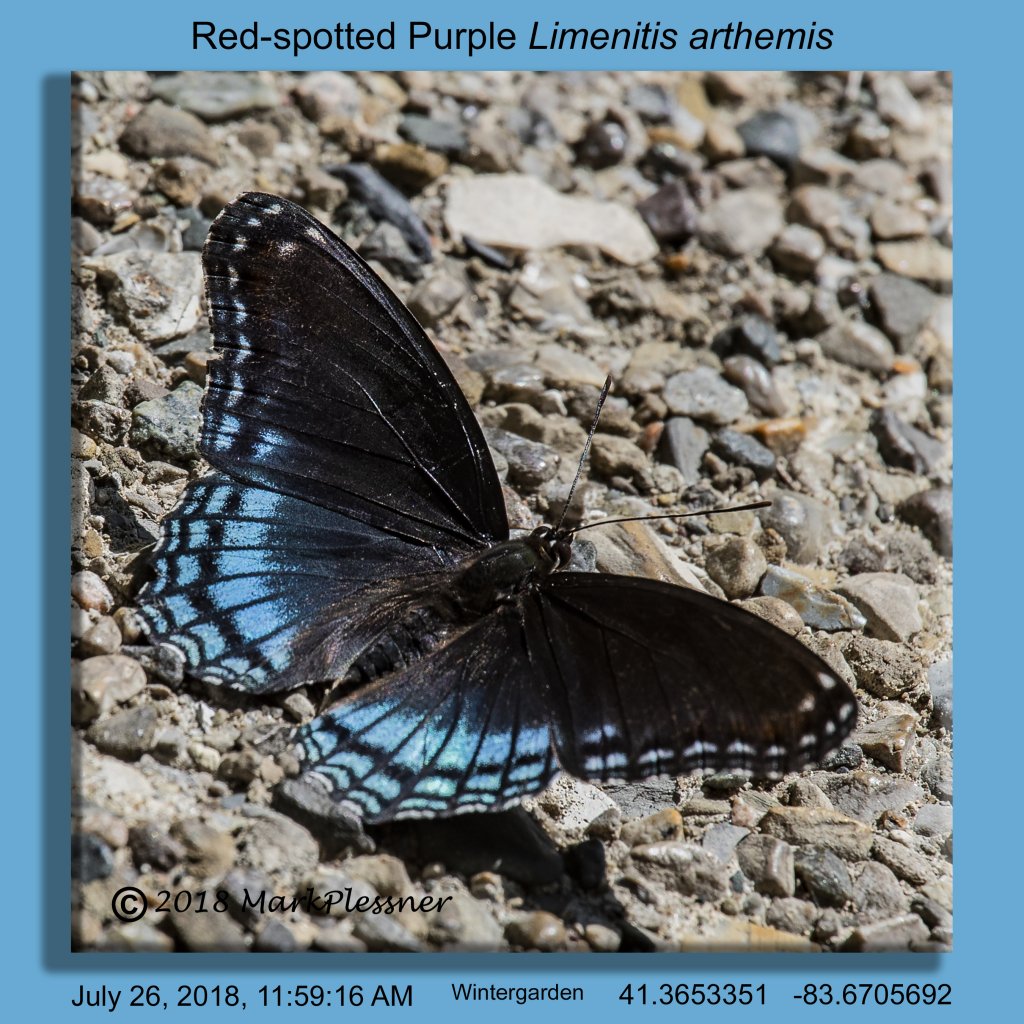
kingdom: Animalia
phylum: Arthropoda
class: Insecta
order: Lepidoptera
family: Nymphalidae
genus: Limenitis
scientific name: Limenitis astyanax
